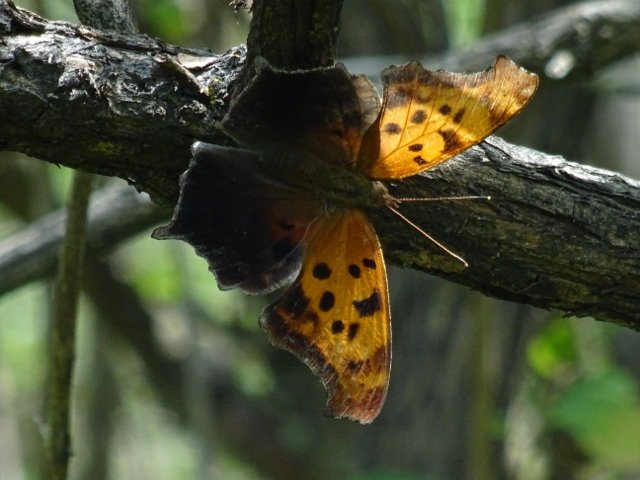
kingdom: Animalia
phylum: Arthropoda
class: Insecta
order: Lepidoptera
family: Nymphalidae
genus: Polygonia
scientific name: Polygonia interrogationis
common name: Question Mark
